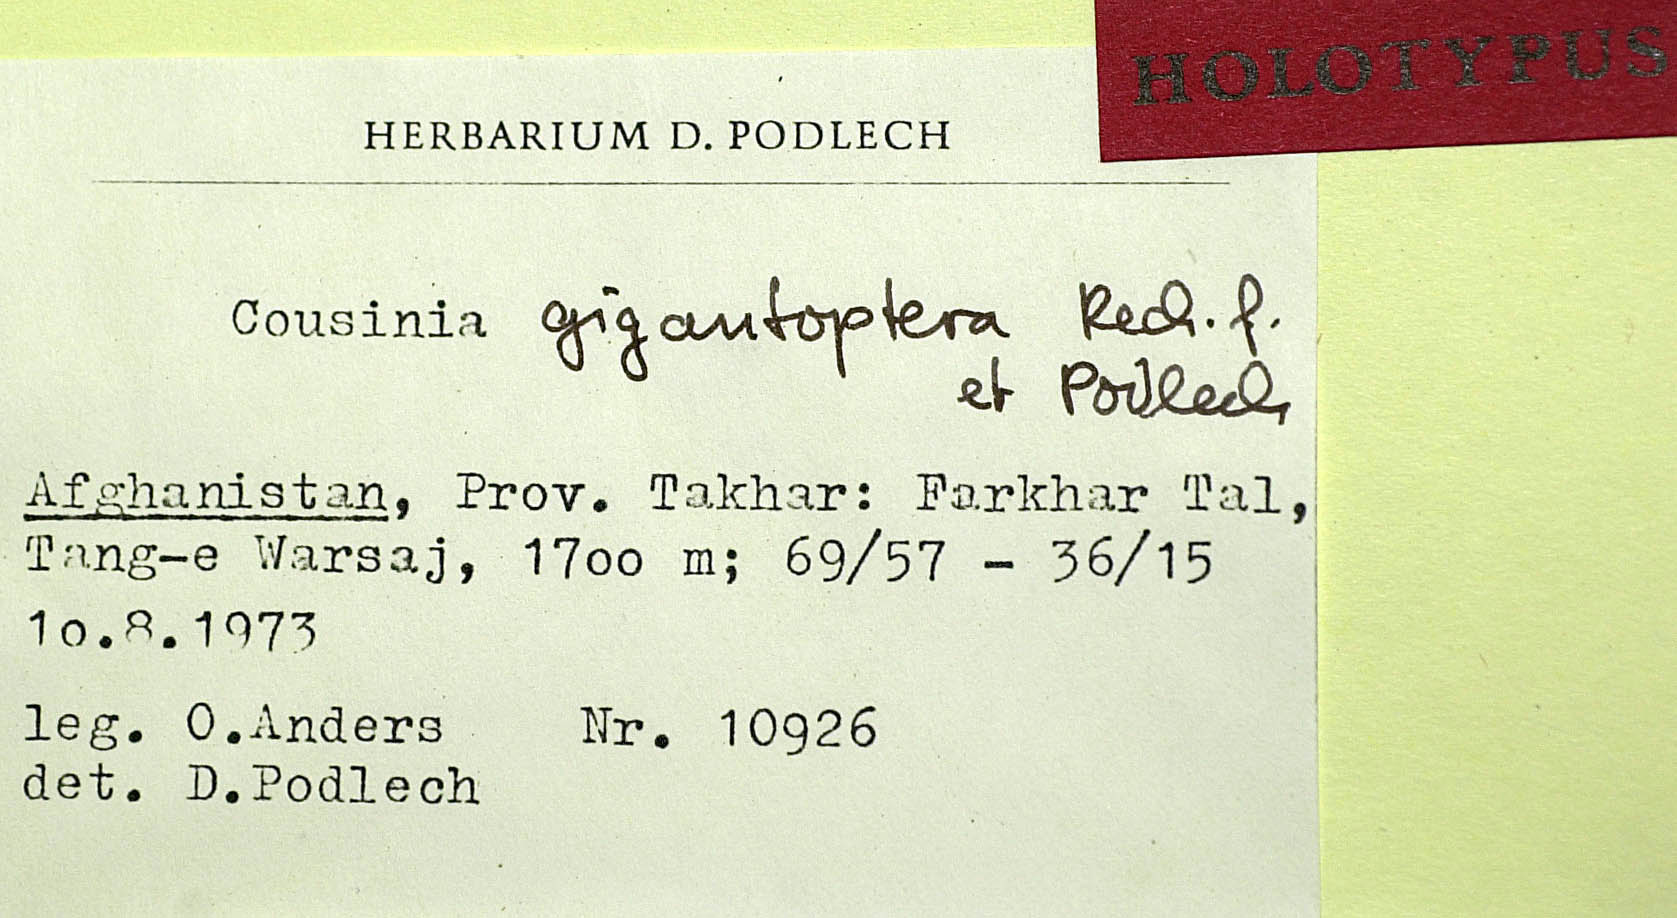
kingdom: Plantae
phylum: Tracheophyta
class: Magnoliopsida
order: Asterales
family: Asteraceae
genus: Cousinia
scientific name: Cousinia gigantoptera
